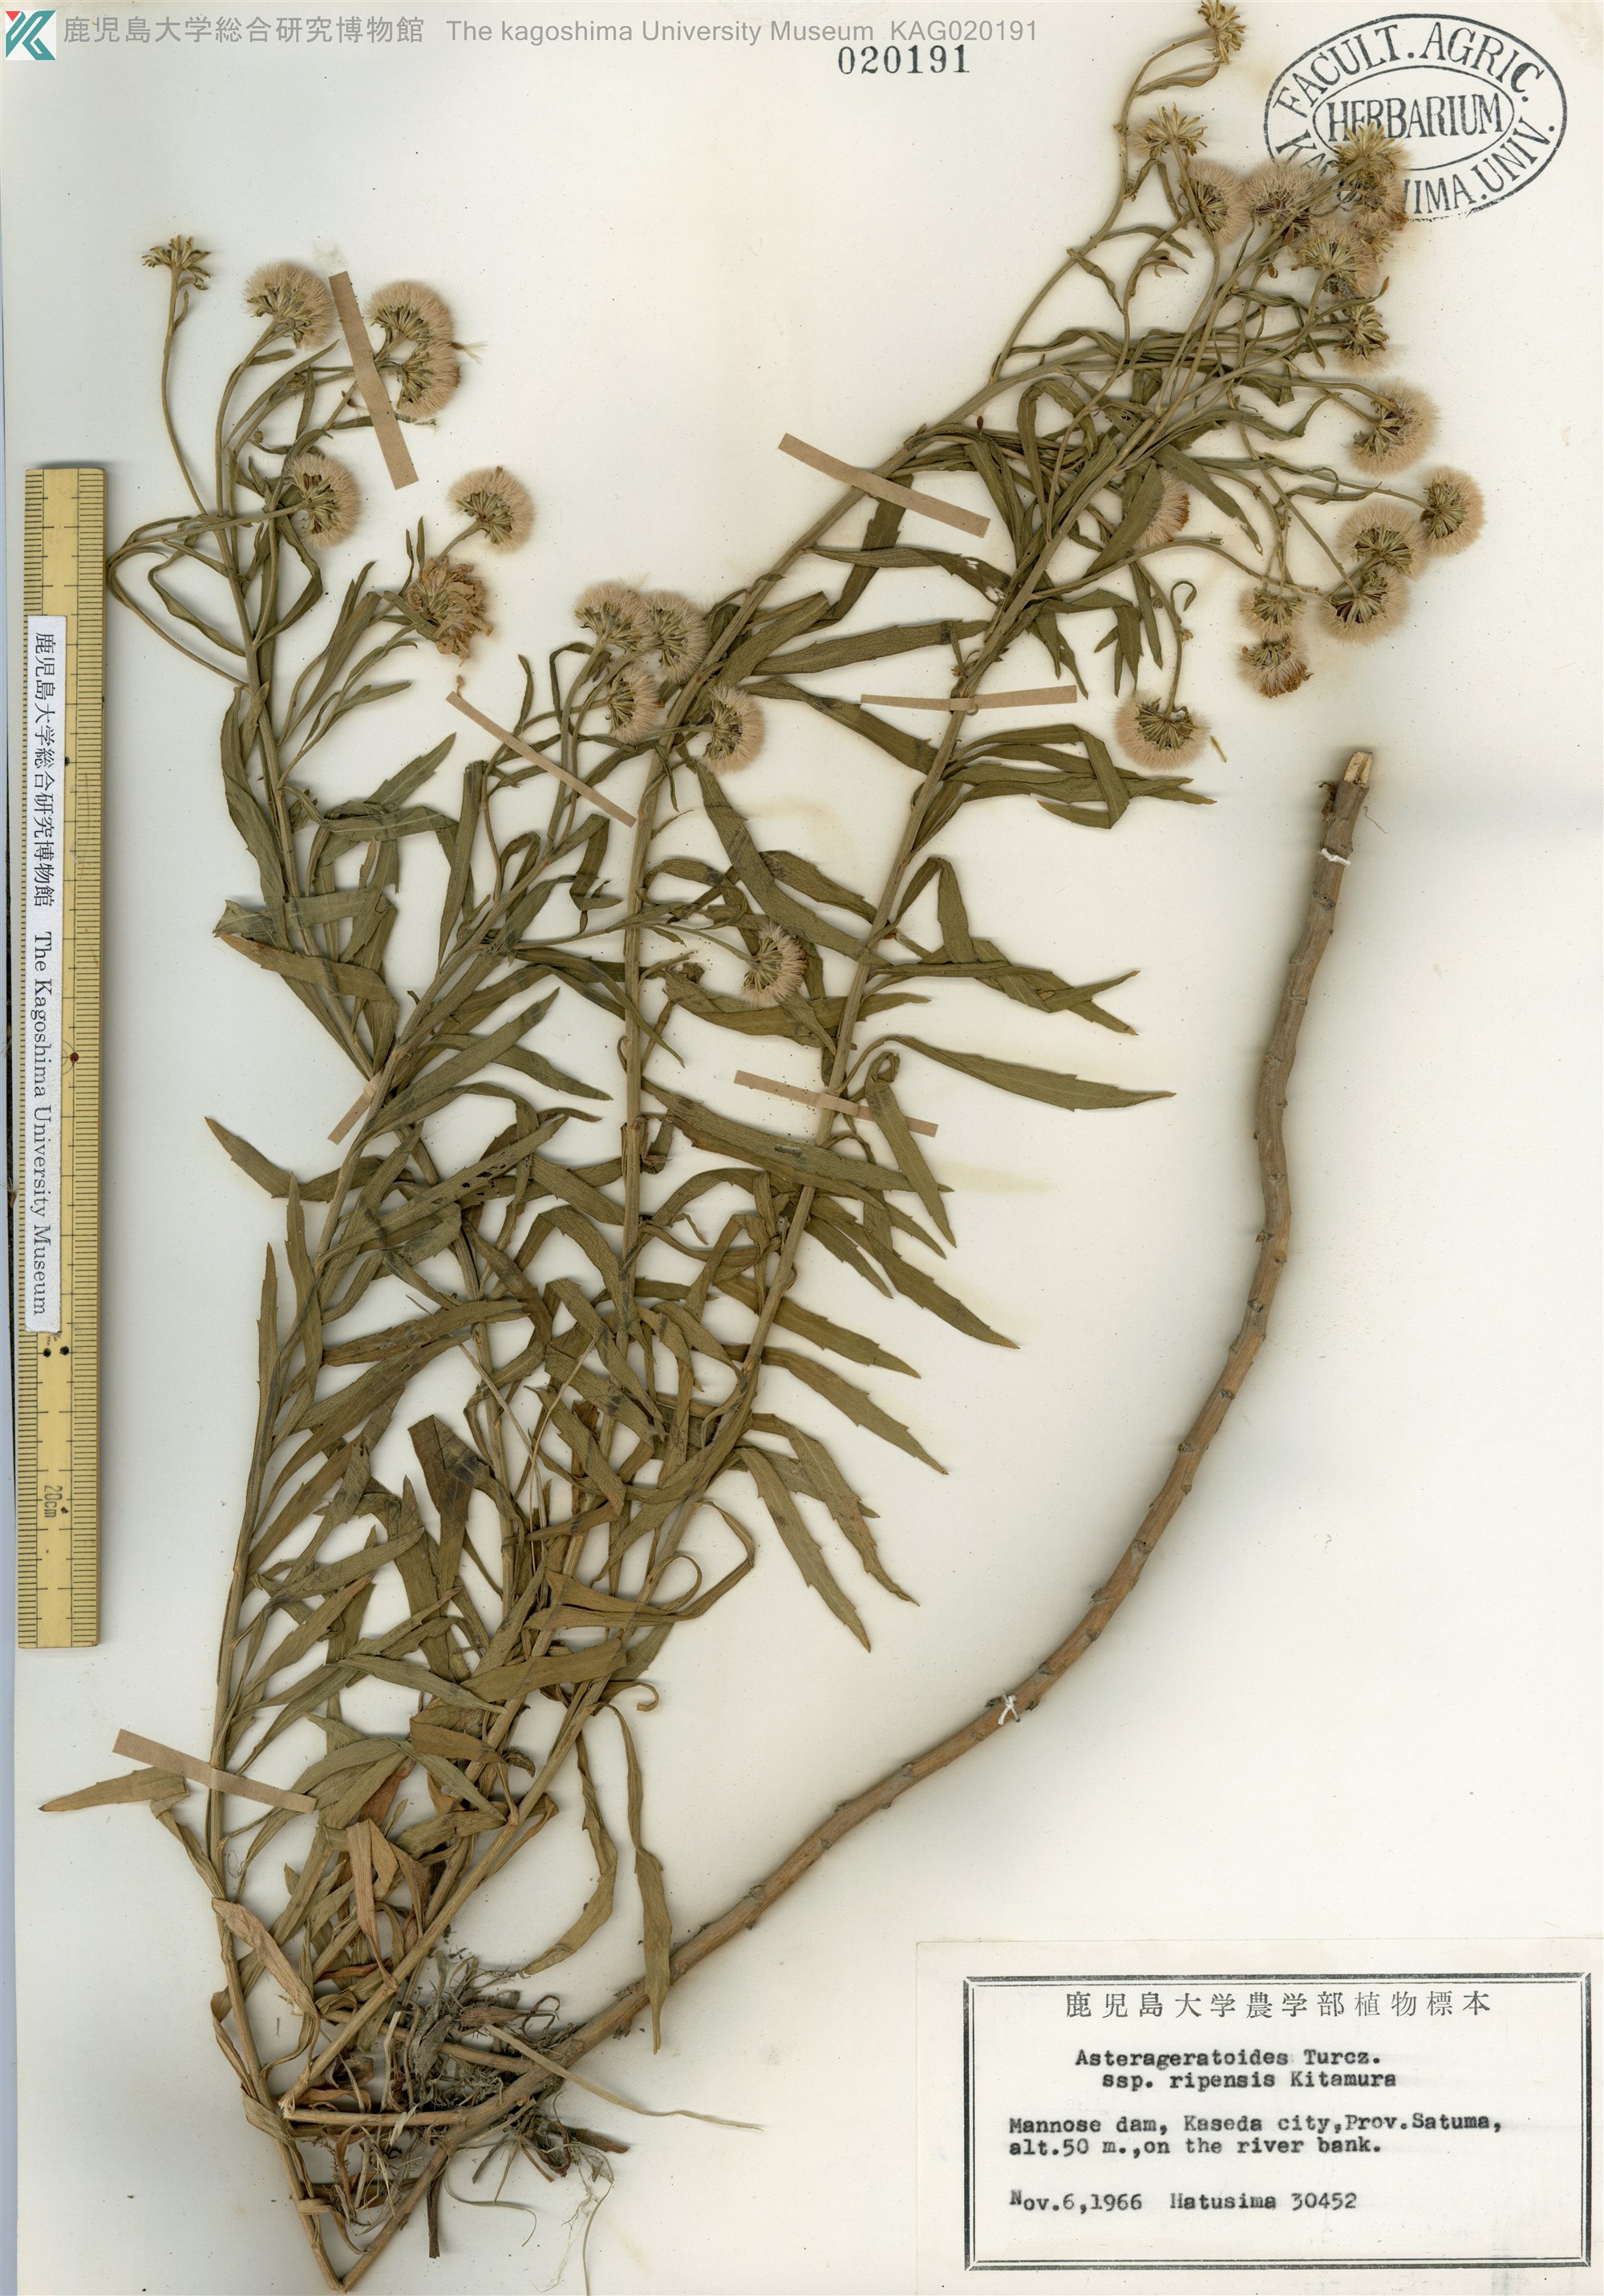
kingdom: Plantae
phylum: Tracheophyta
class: Magnoliopsida
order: Asterales
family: Asteraceae
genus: Aster
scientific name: Aster microcephalus
